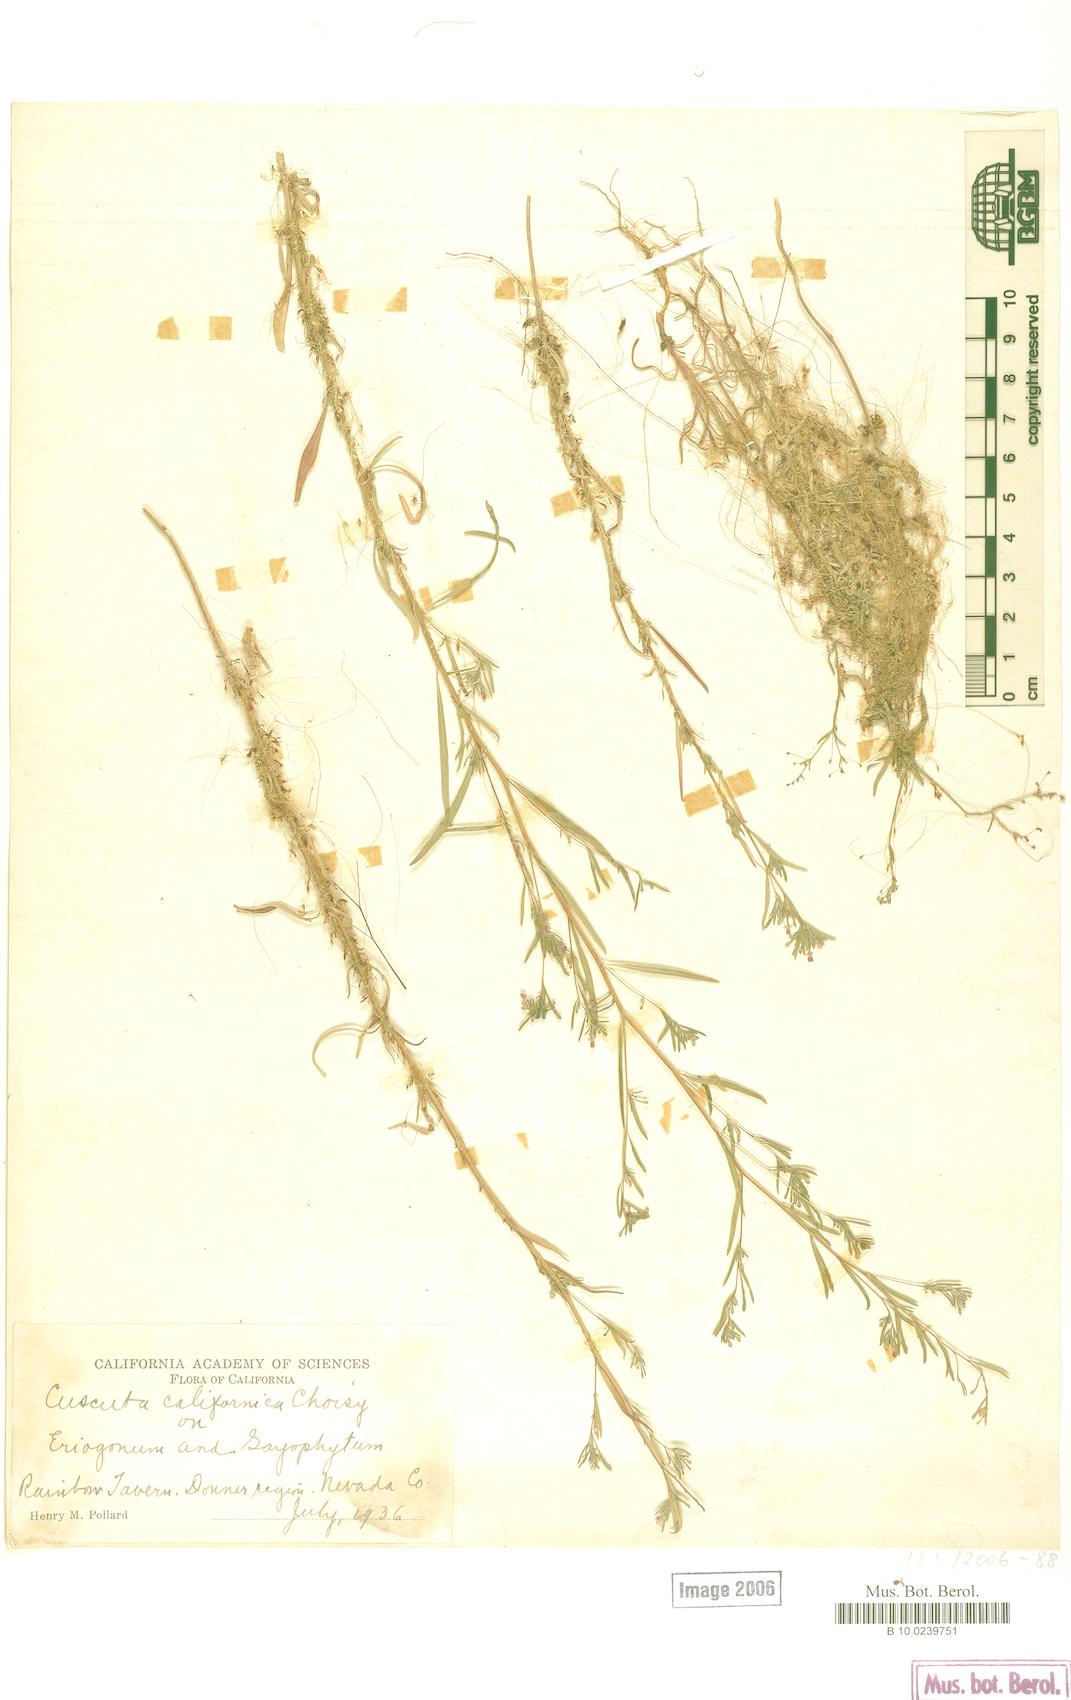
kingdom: Plantae
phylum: Tracheophyta
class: Magnoliopsida
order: Solanales
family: Convolvulaceae
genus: Cuscuta
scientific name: Cuscuta californica
